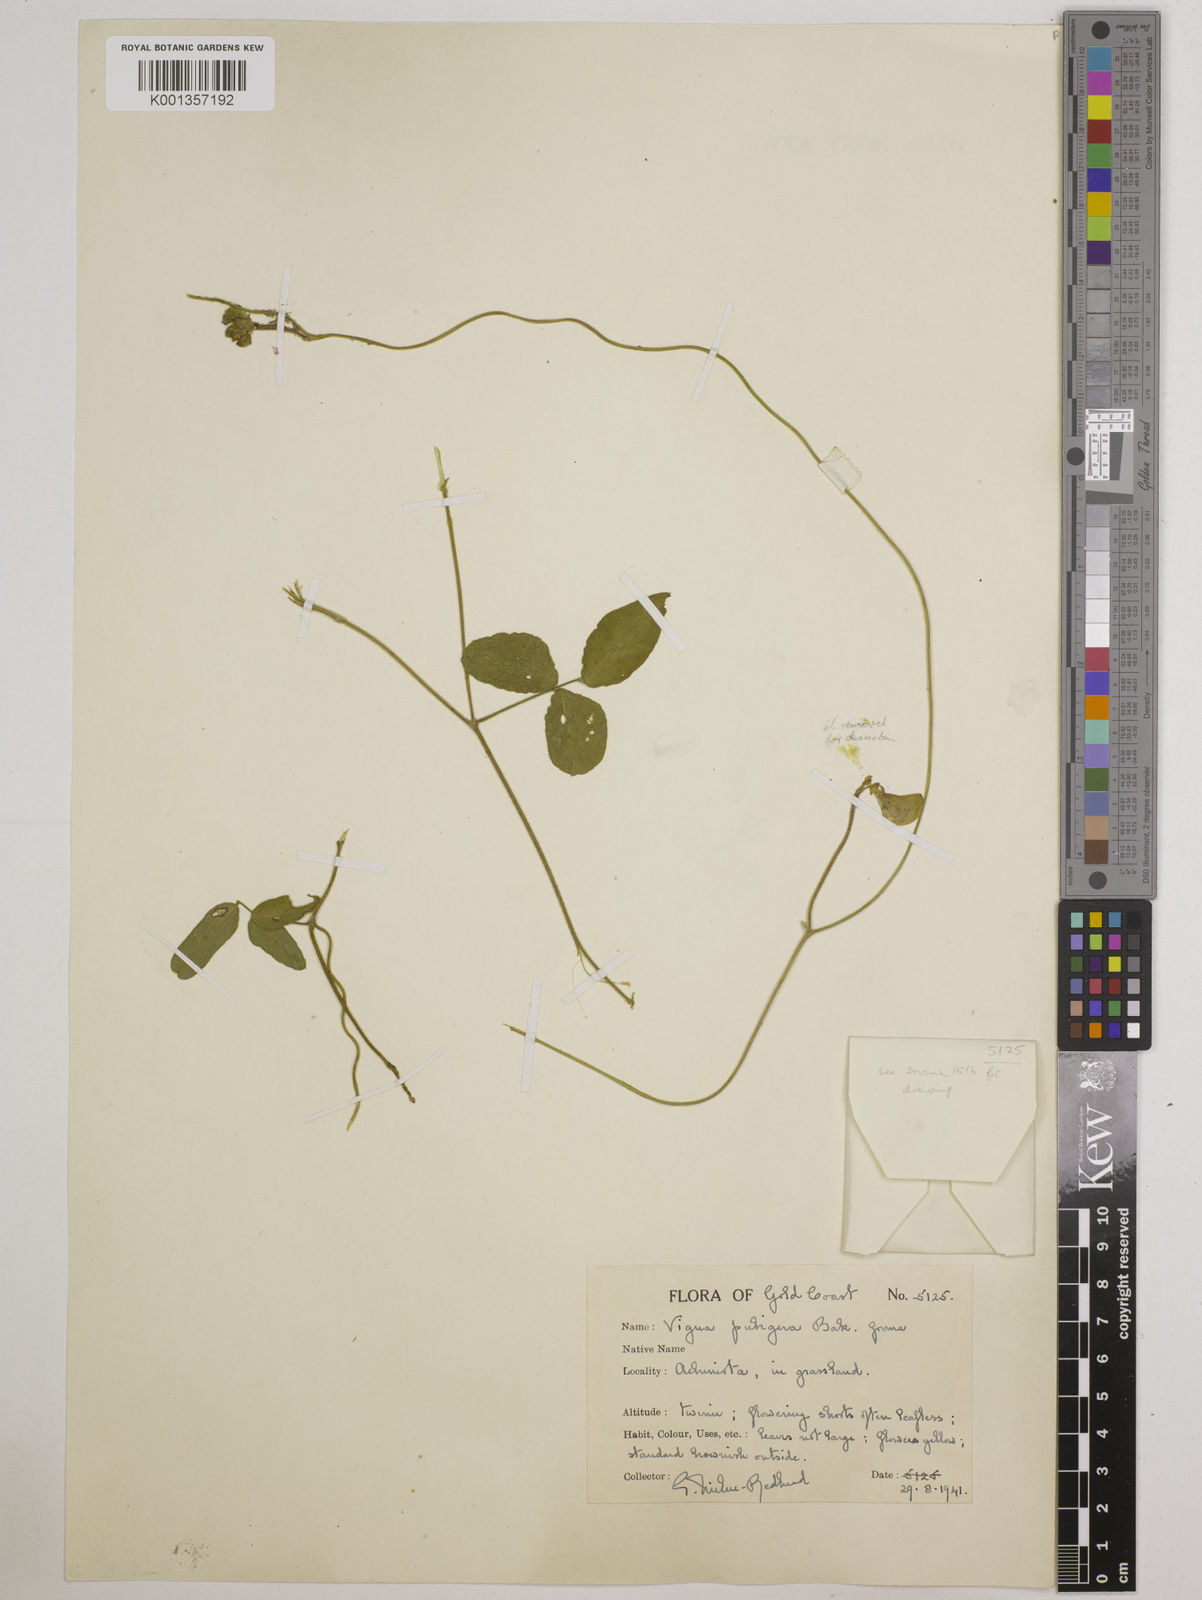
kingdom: Plantae
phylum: Tracheophyta
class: Magnoliopsida
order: Fabales
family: Fabaceae
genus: Vigna
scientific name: Vigna ambacensis
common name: Tsarkiyan zomo
